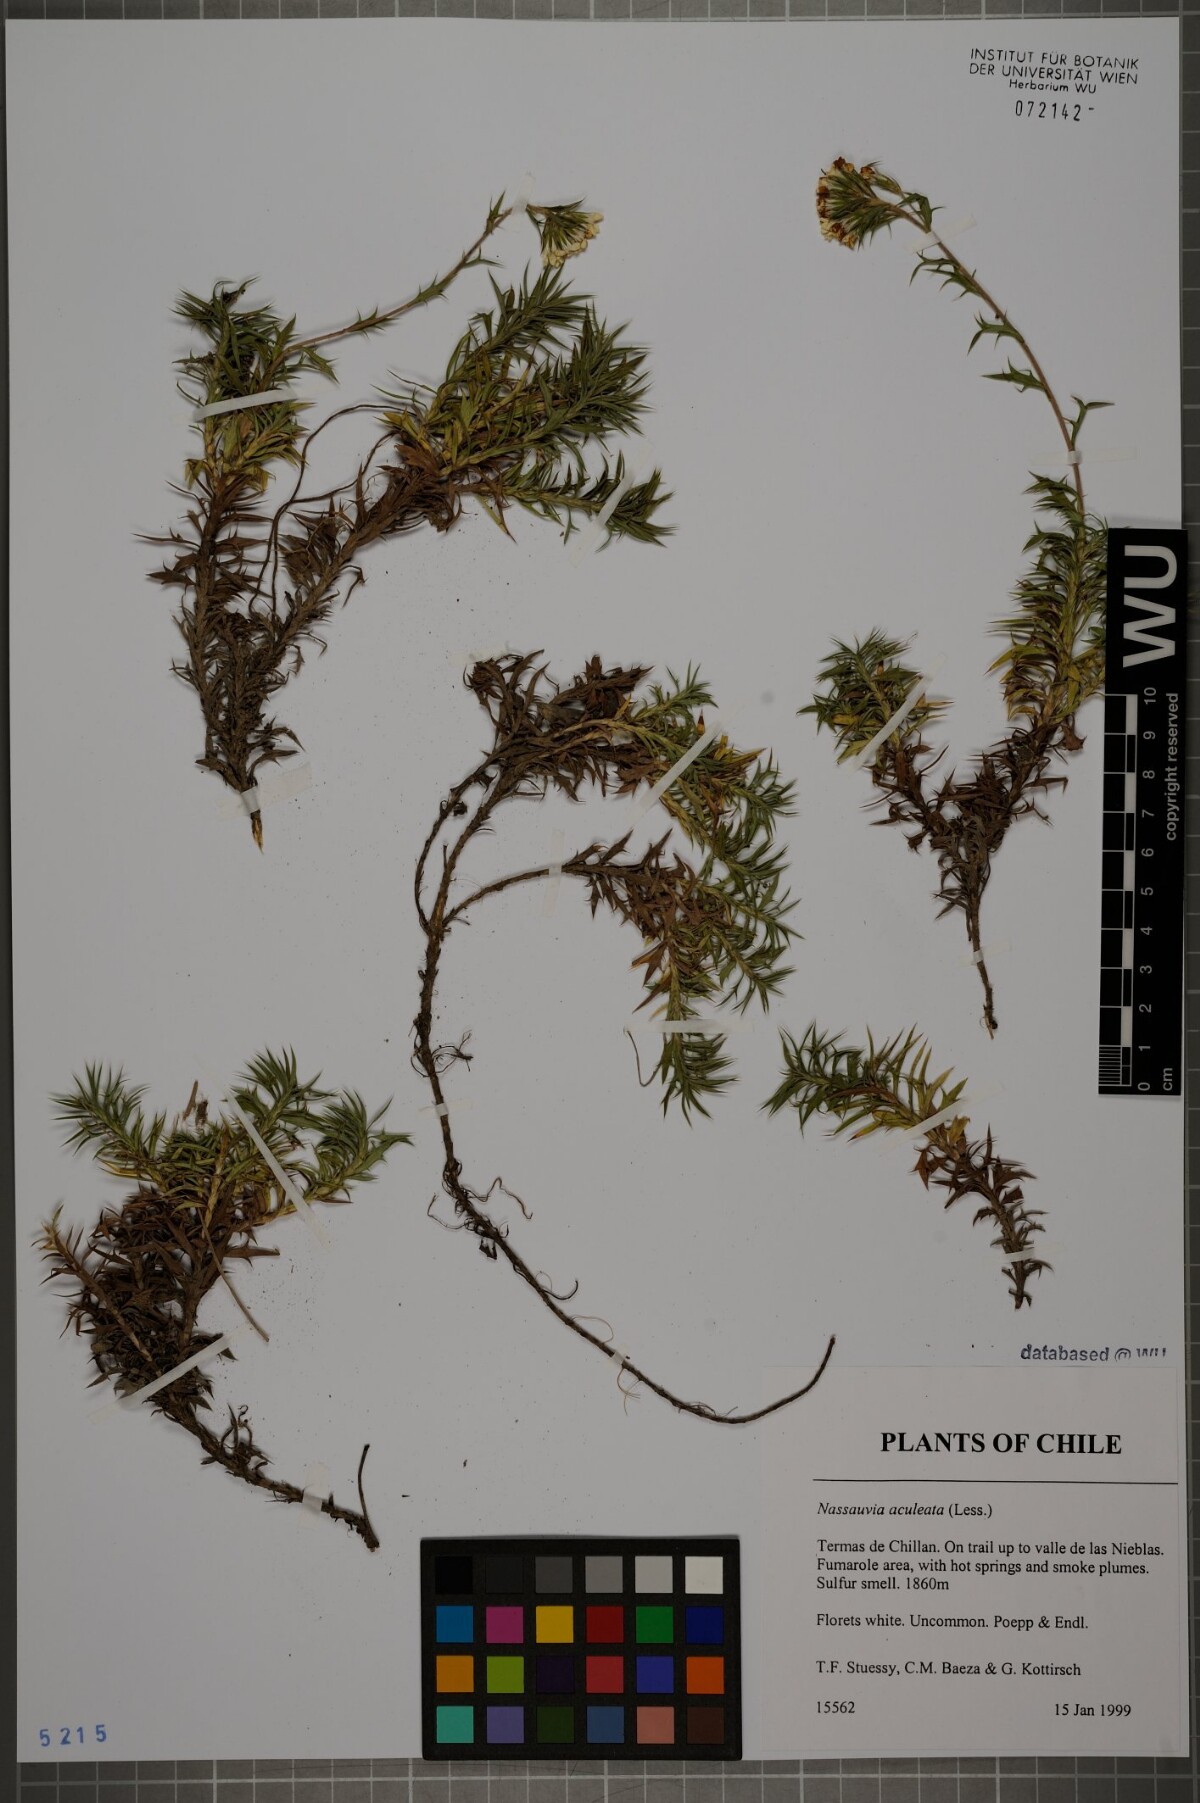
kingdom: Plantae
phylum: Tracheophyta
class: Magnoliopsida
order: Asterales
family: Asteraceae
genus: Nassauvia
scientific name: Nassauvia aculeata
